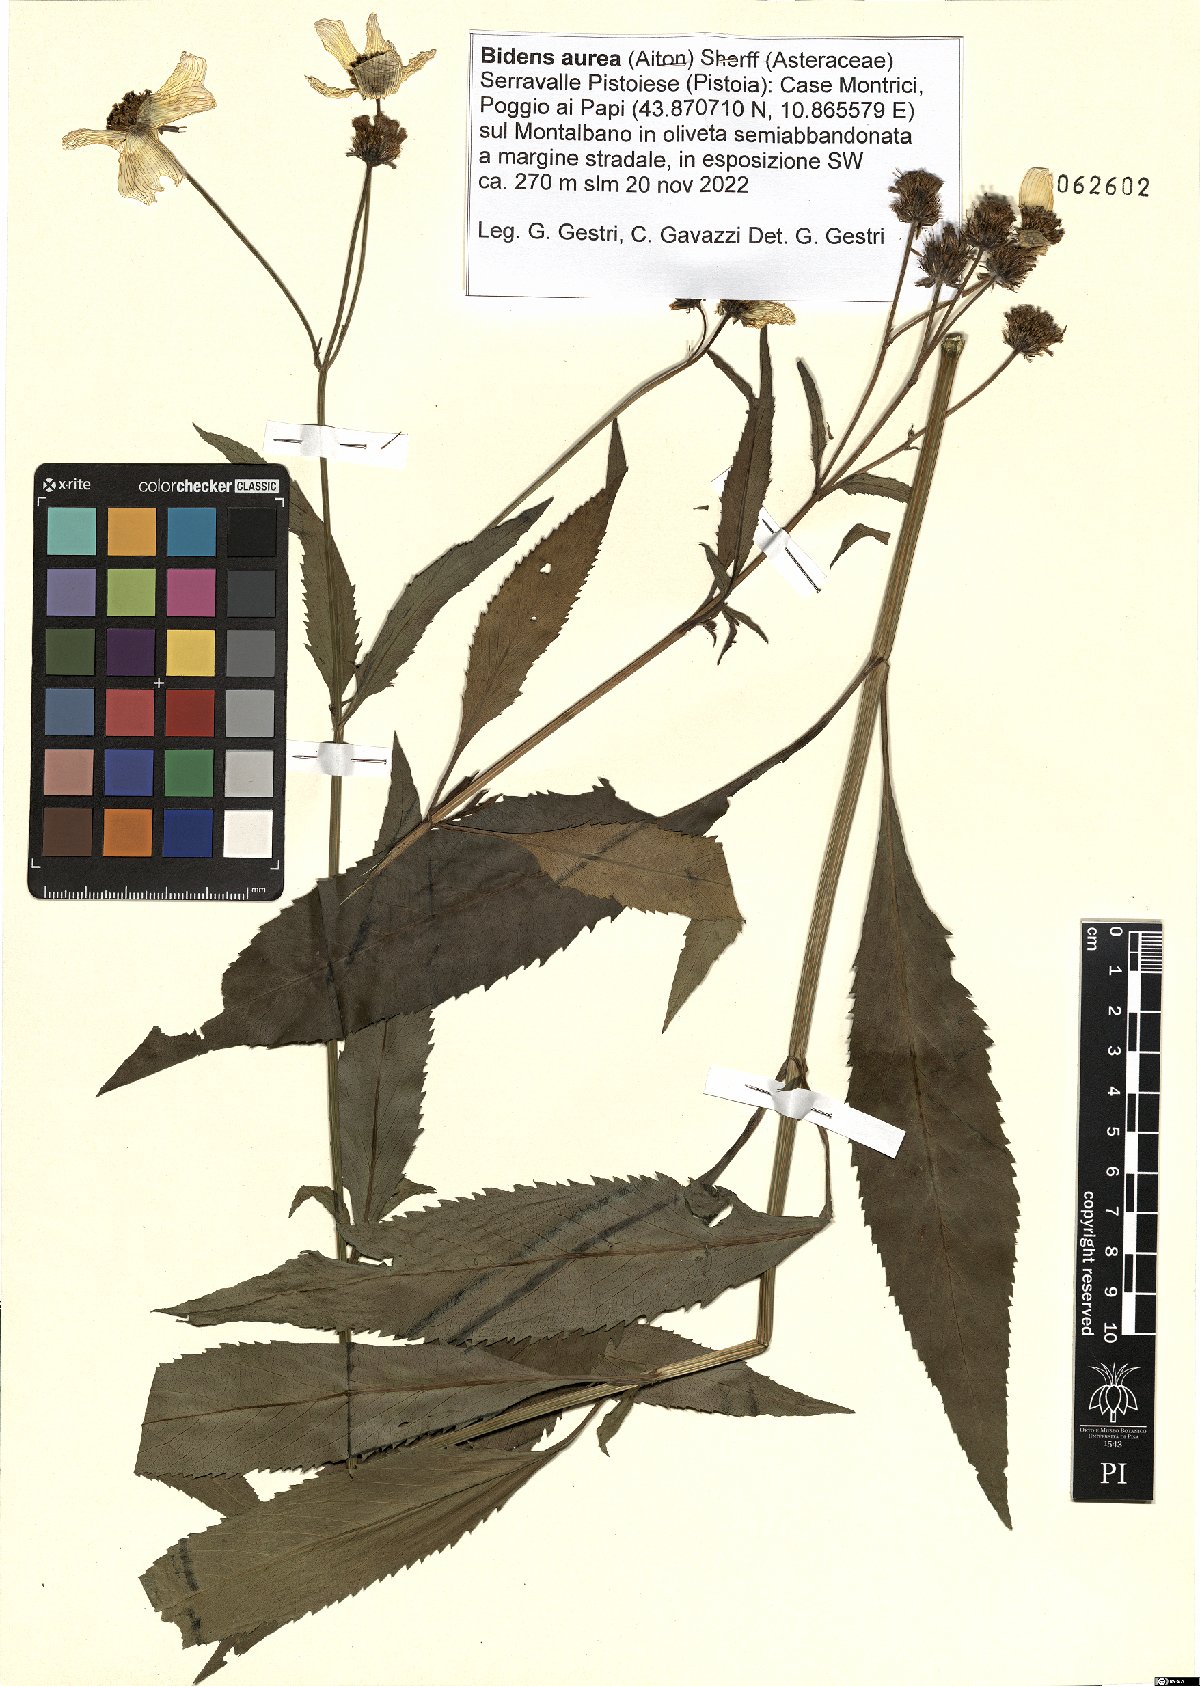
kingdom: Plantae
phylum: Tracheophyta
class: Magnoliopsida
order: Asterales
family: Asteraceae
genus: Bidens
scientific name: Bidens aurea
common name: Arizona beggar-ticks
